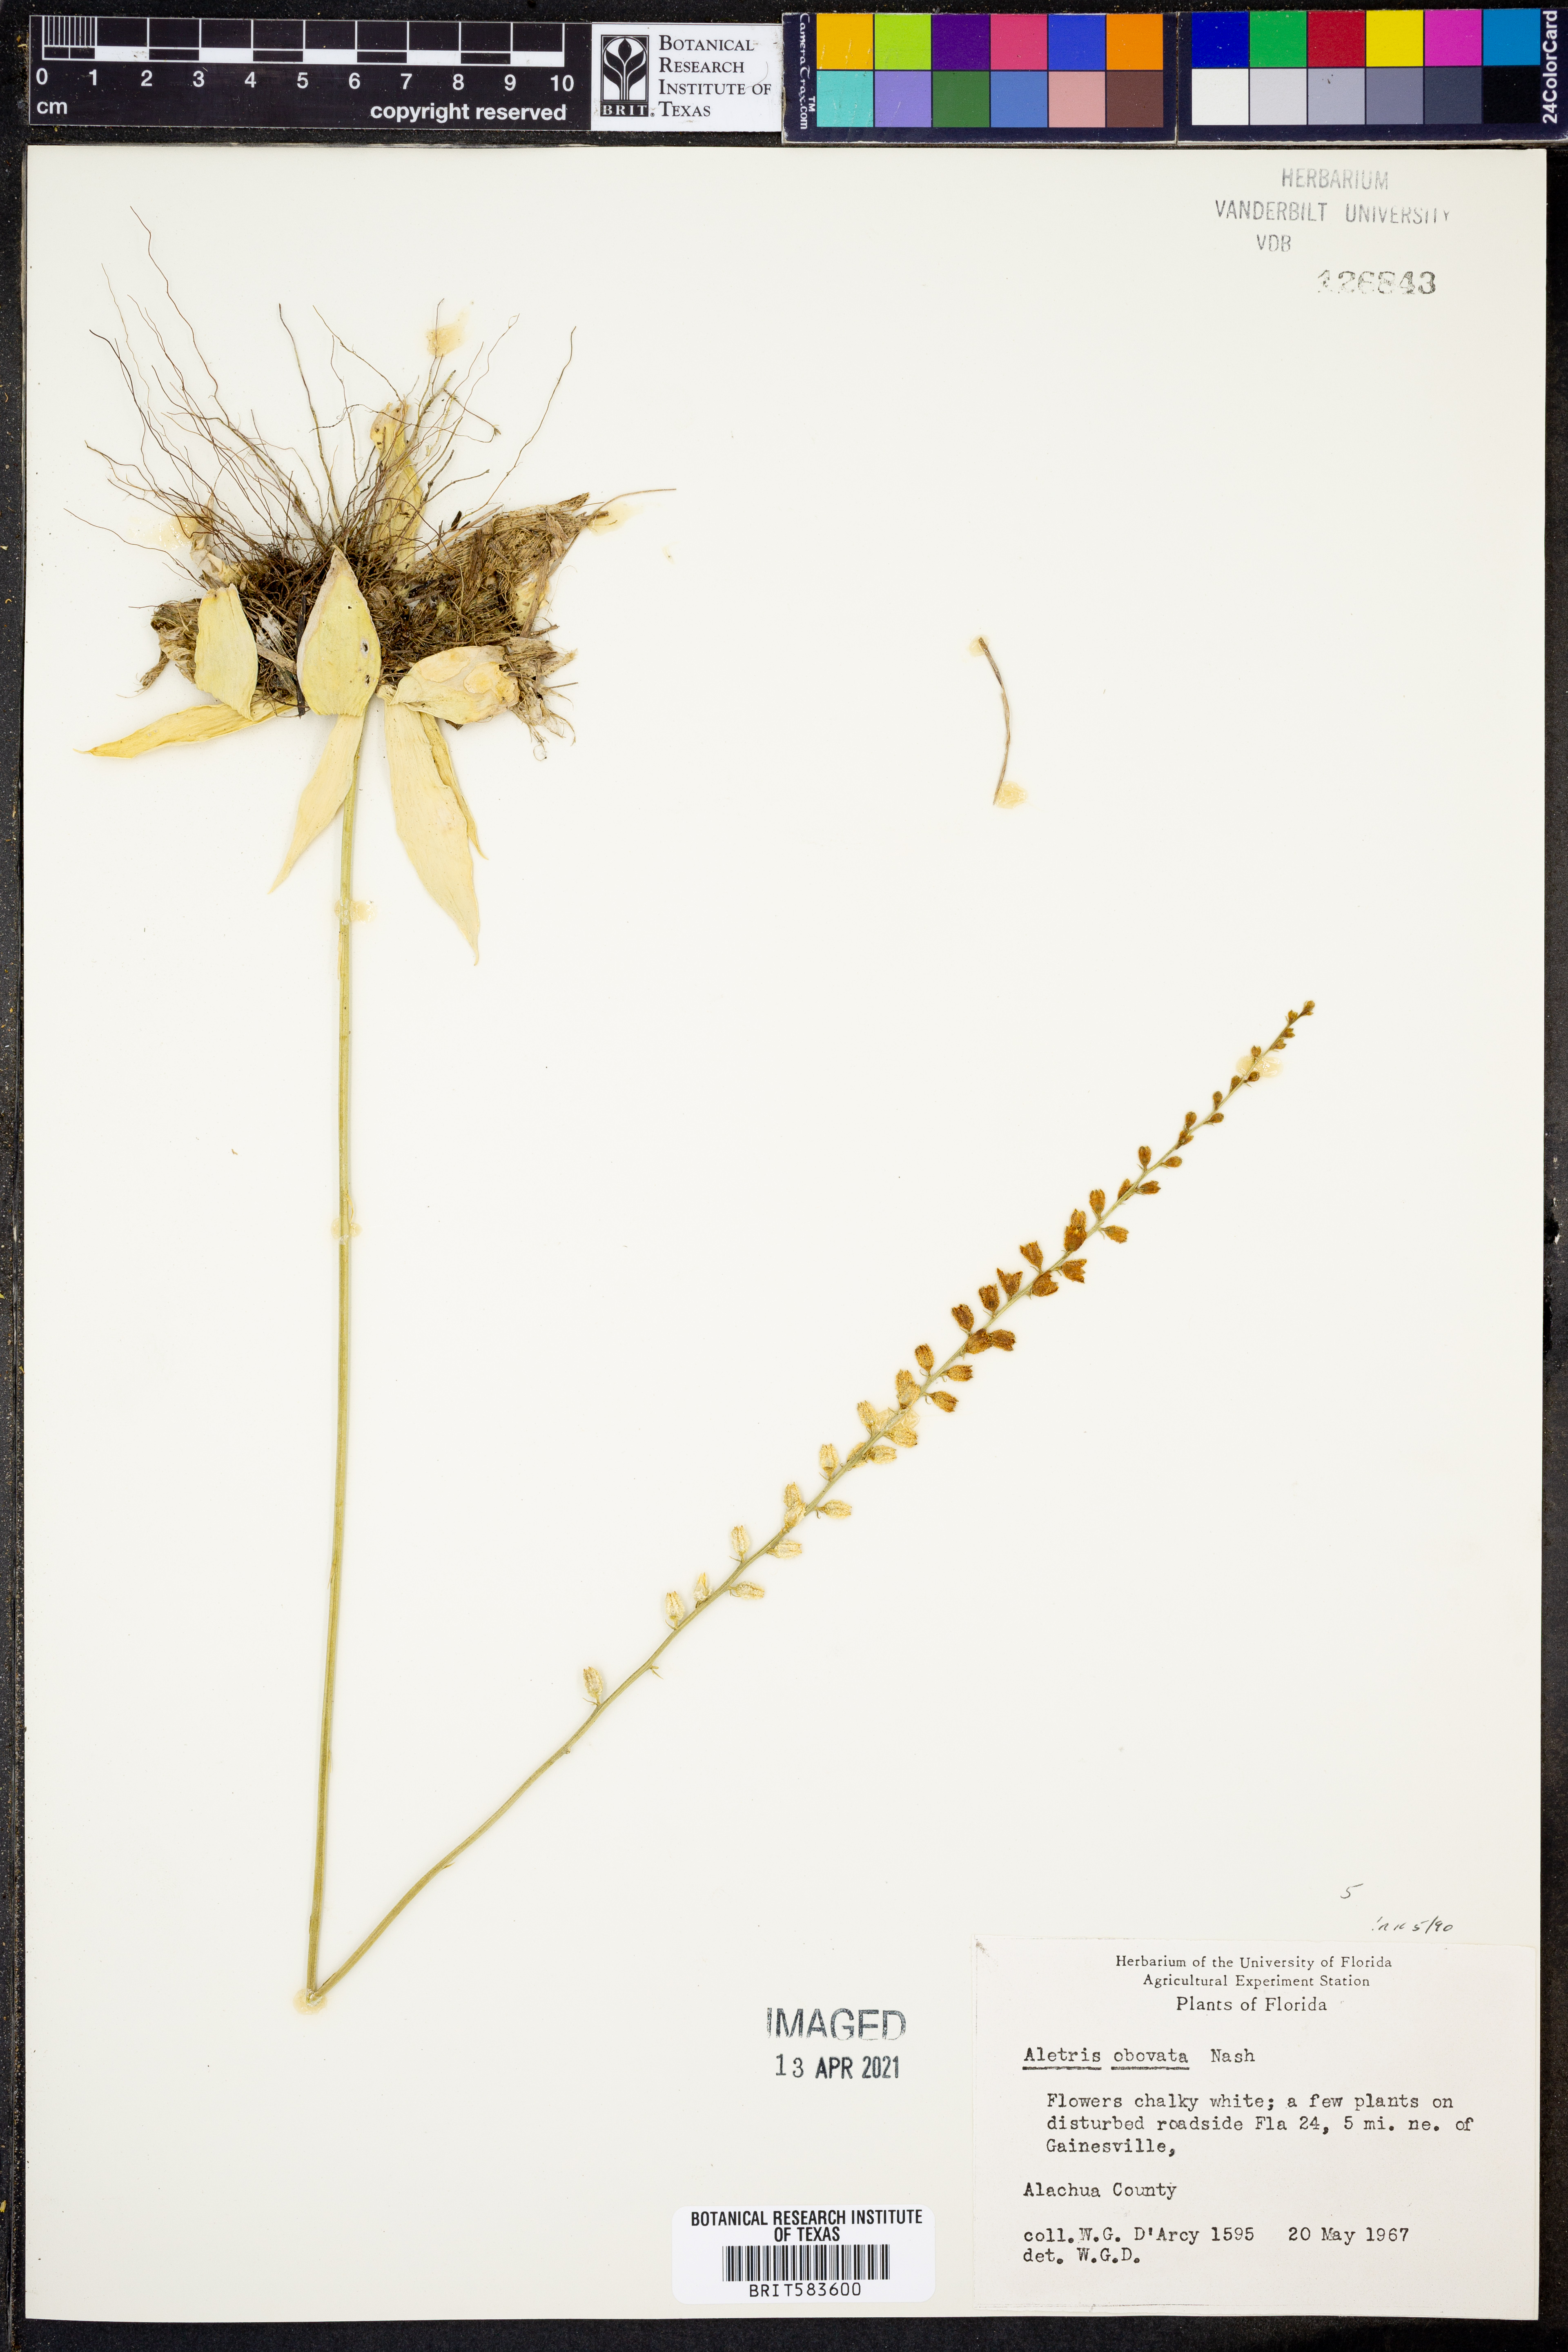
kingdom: Plantae
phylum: Tracheophyta
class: Liliopsida
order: Dioscoreales
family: Nartheciaceae
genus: Aletris
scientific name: Aletris obovata
